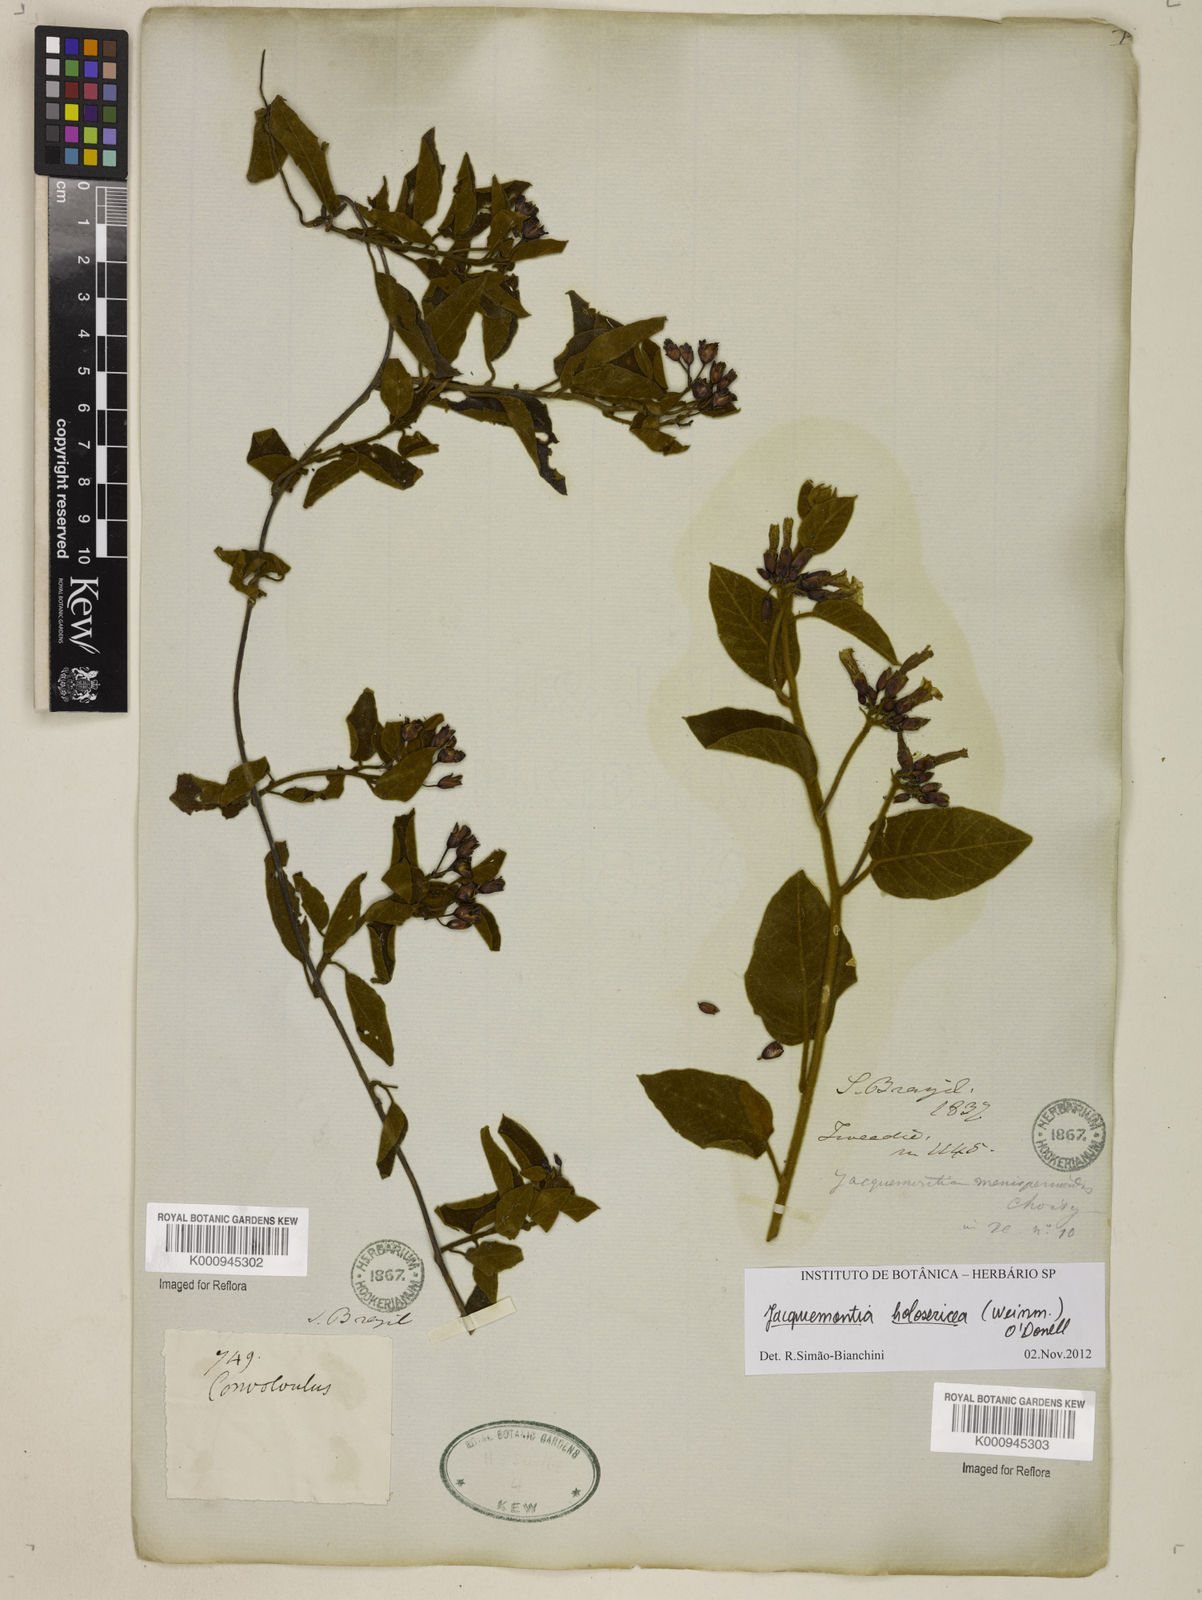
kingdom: Plantae
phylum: Tracheophyta
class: Magnoliopsida
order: Solanales
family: Convolvulaceae
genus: Jacquemontia
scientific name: Jacquemontia holosericea
